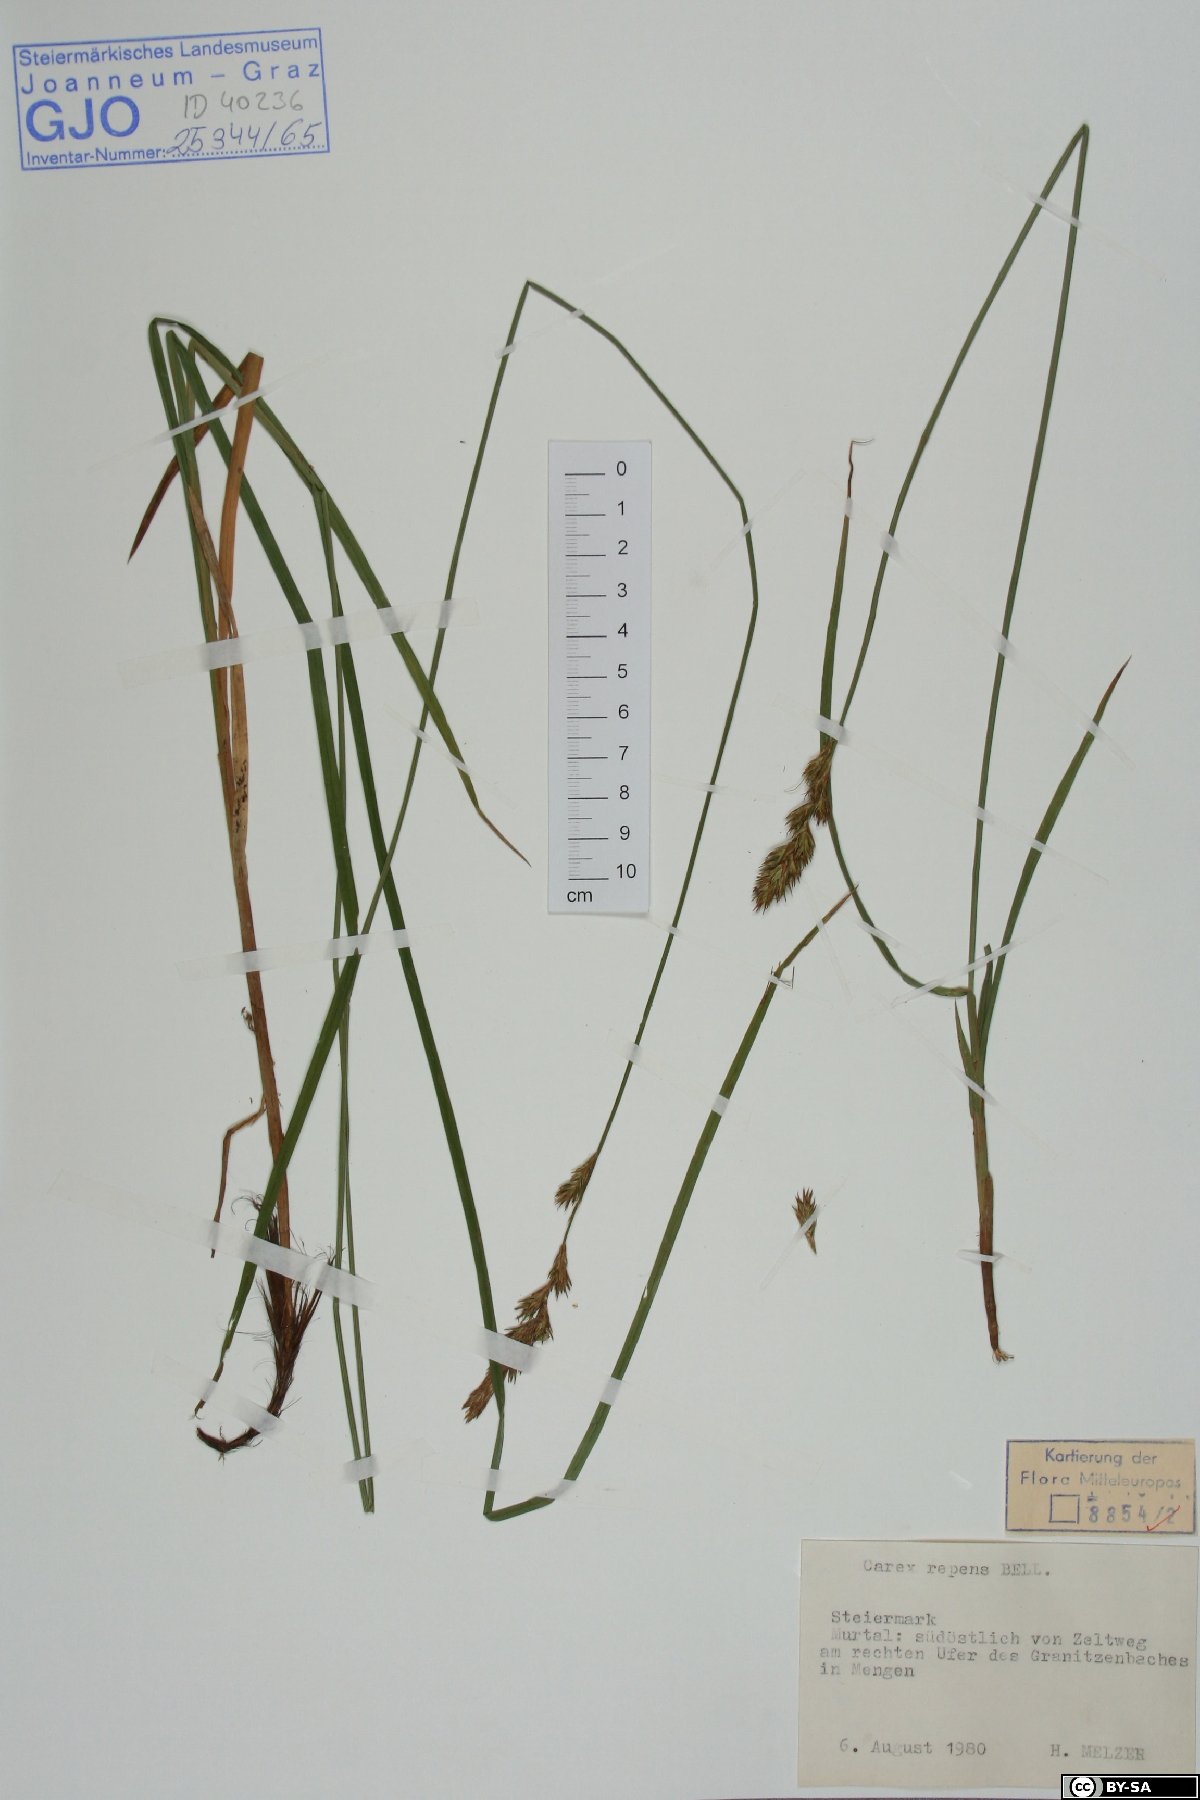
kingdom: Plantae
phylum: Tracheophyta
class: Liliopsida
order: Poales
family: Cyperaceae
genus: Carex
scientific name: Carex repens
